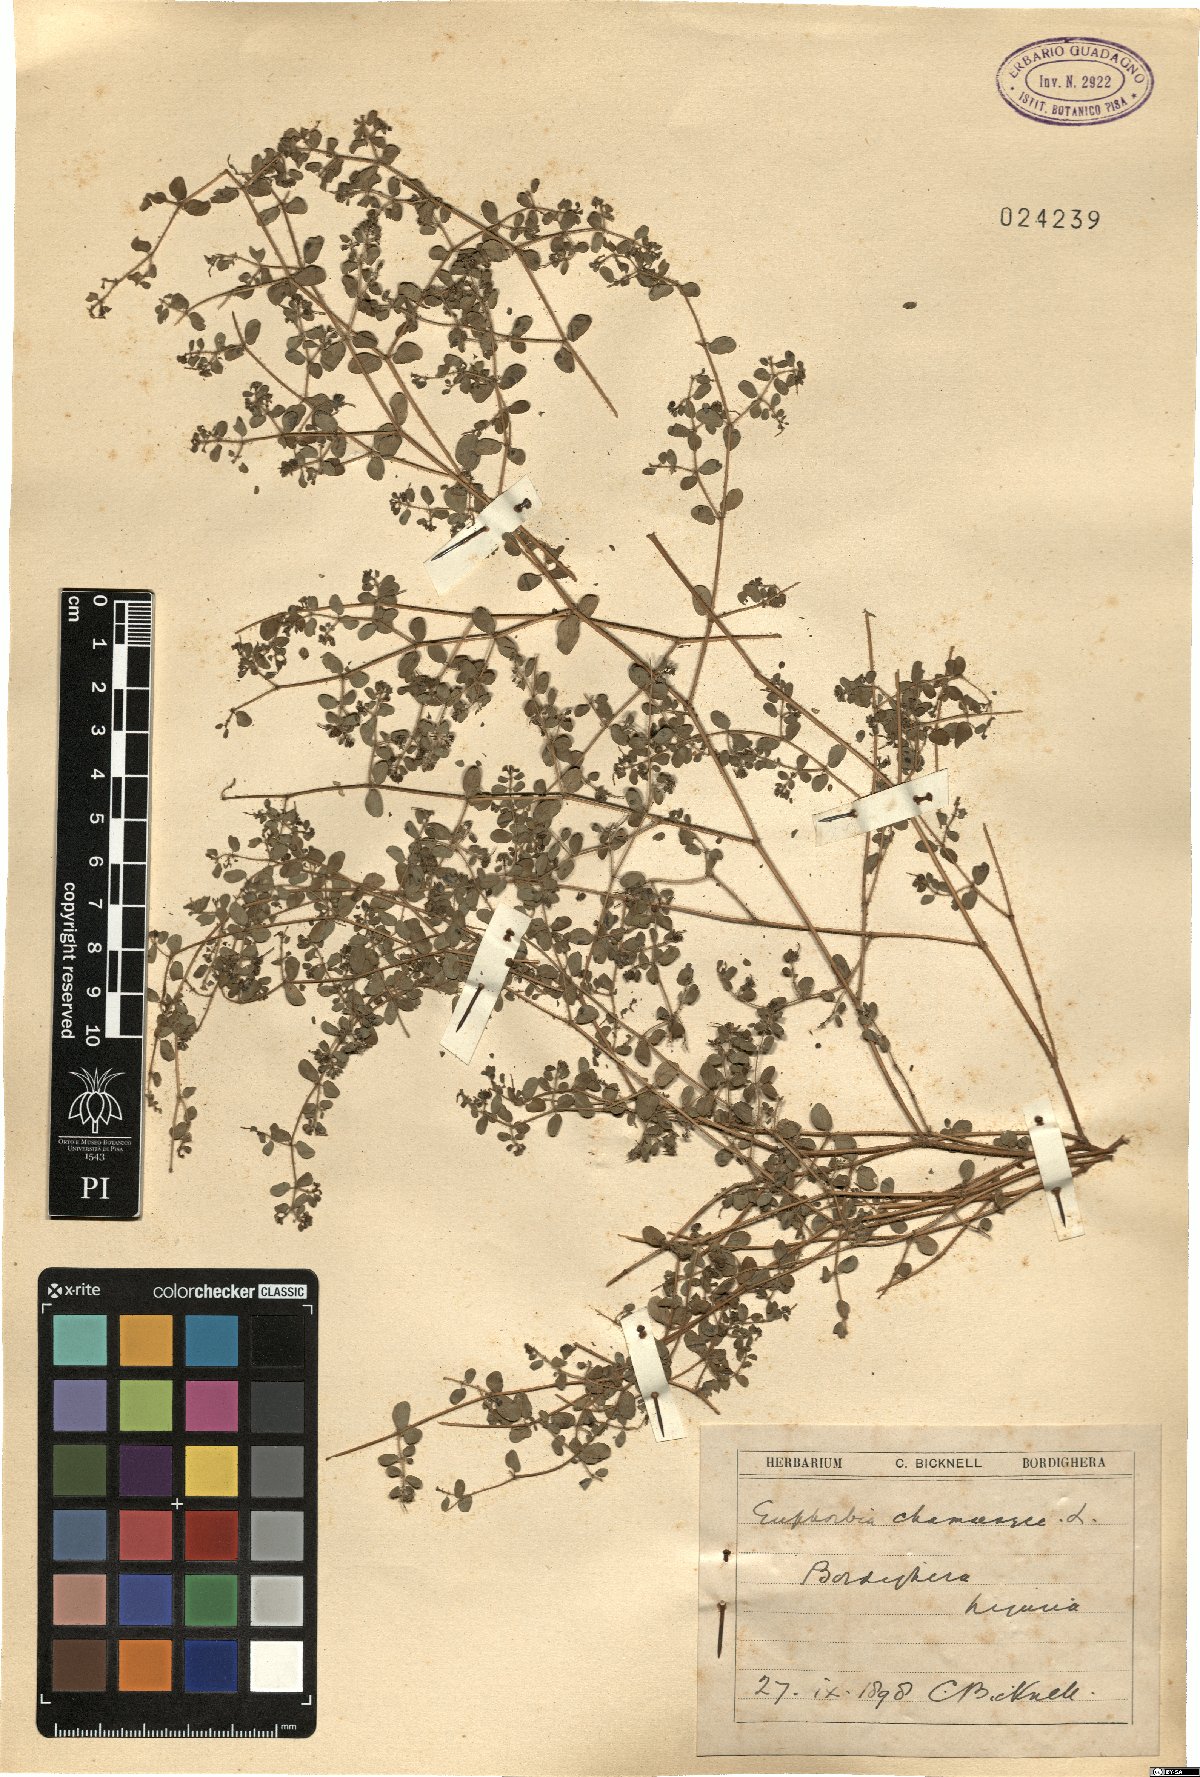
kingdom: Plantae
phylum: Tracheophyta
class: Magnoliopsida
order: Malpighiales
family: Euphorbiaceae
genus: Euphorbia
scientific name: Euphorbia chamaesyce
